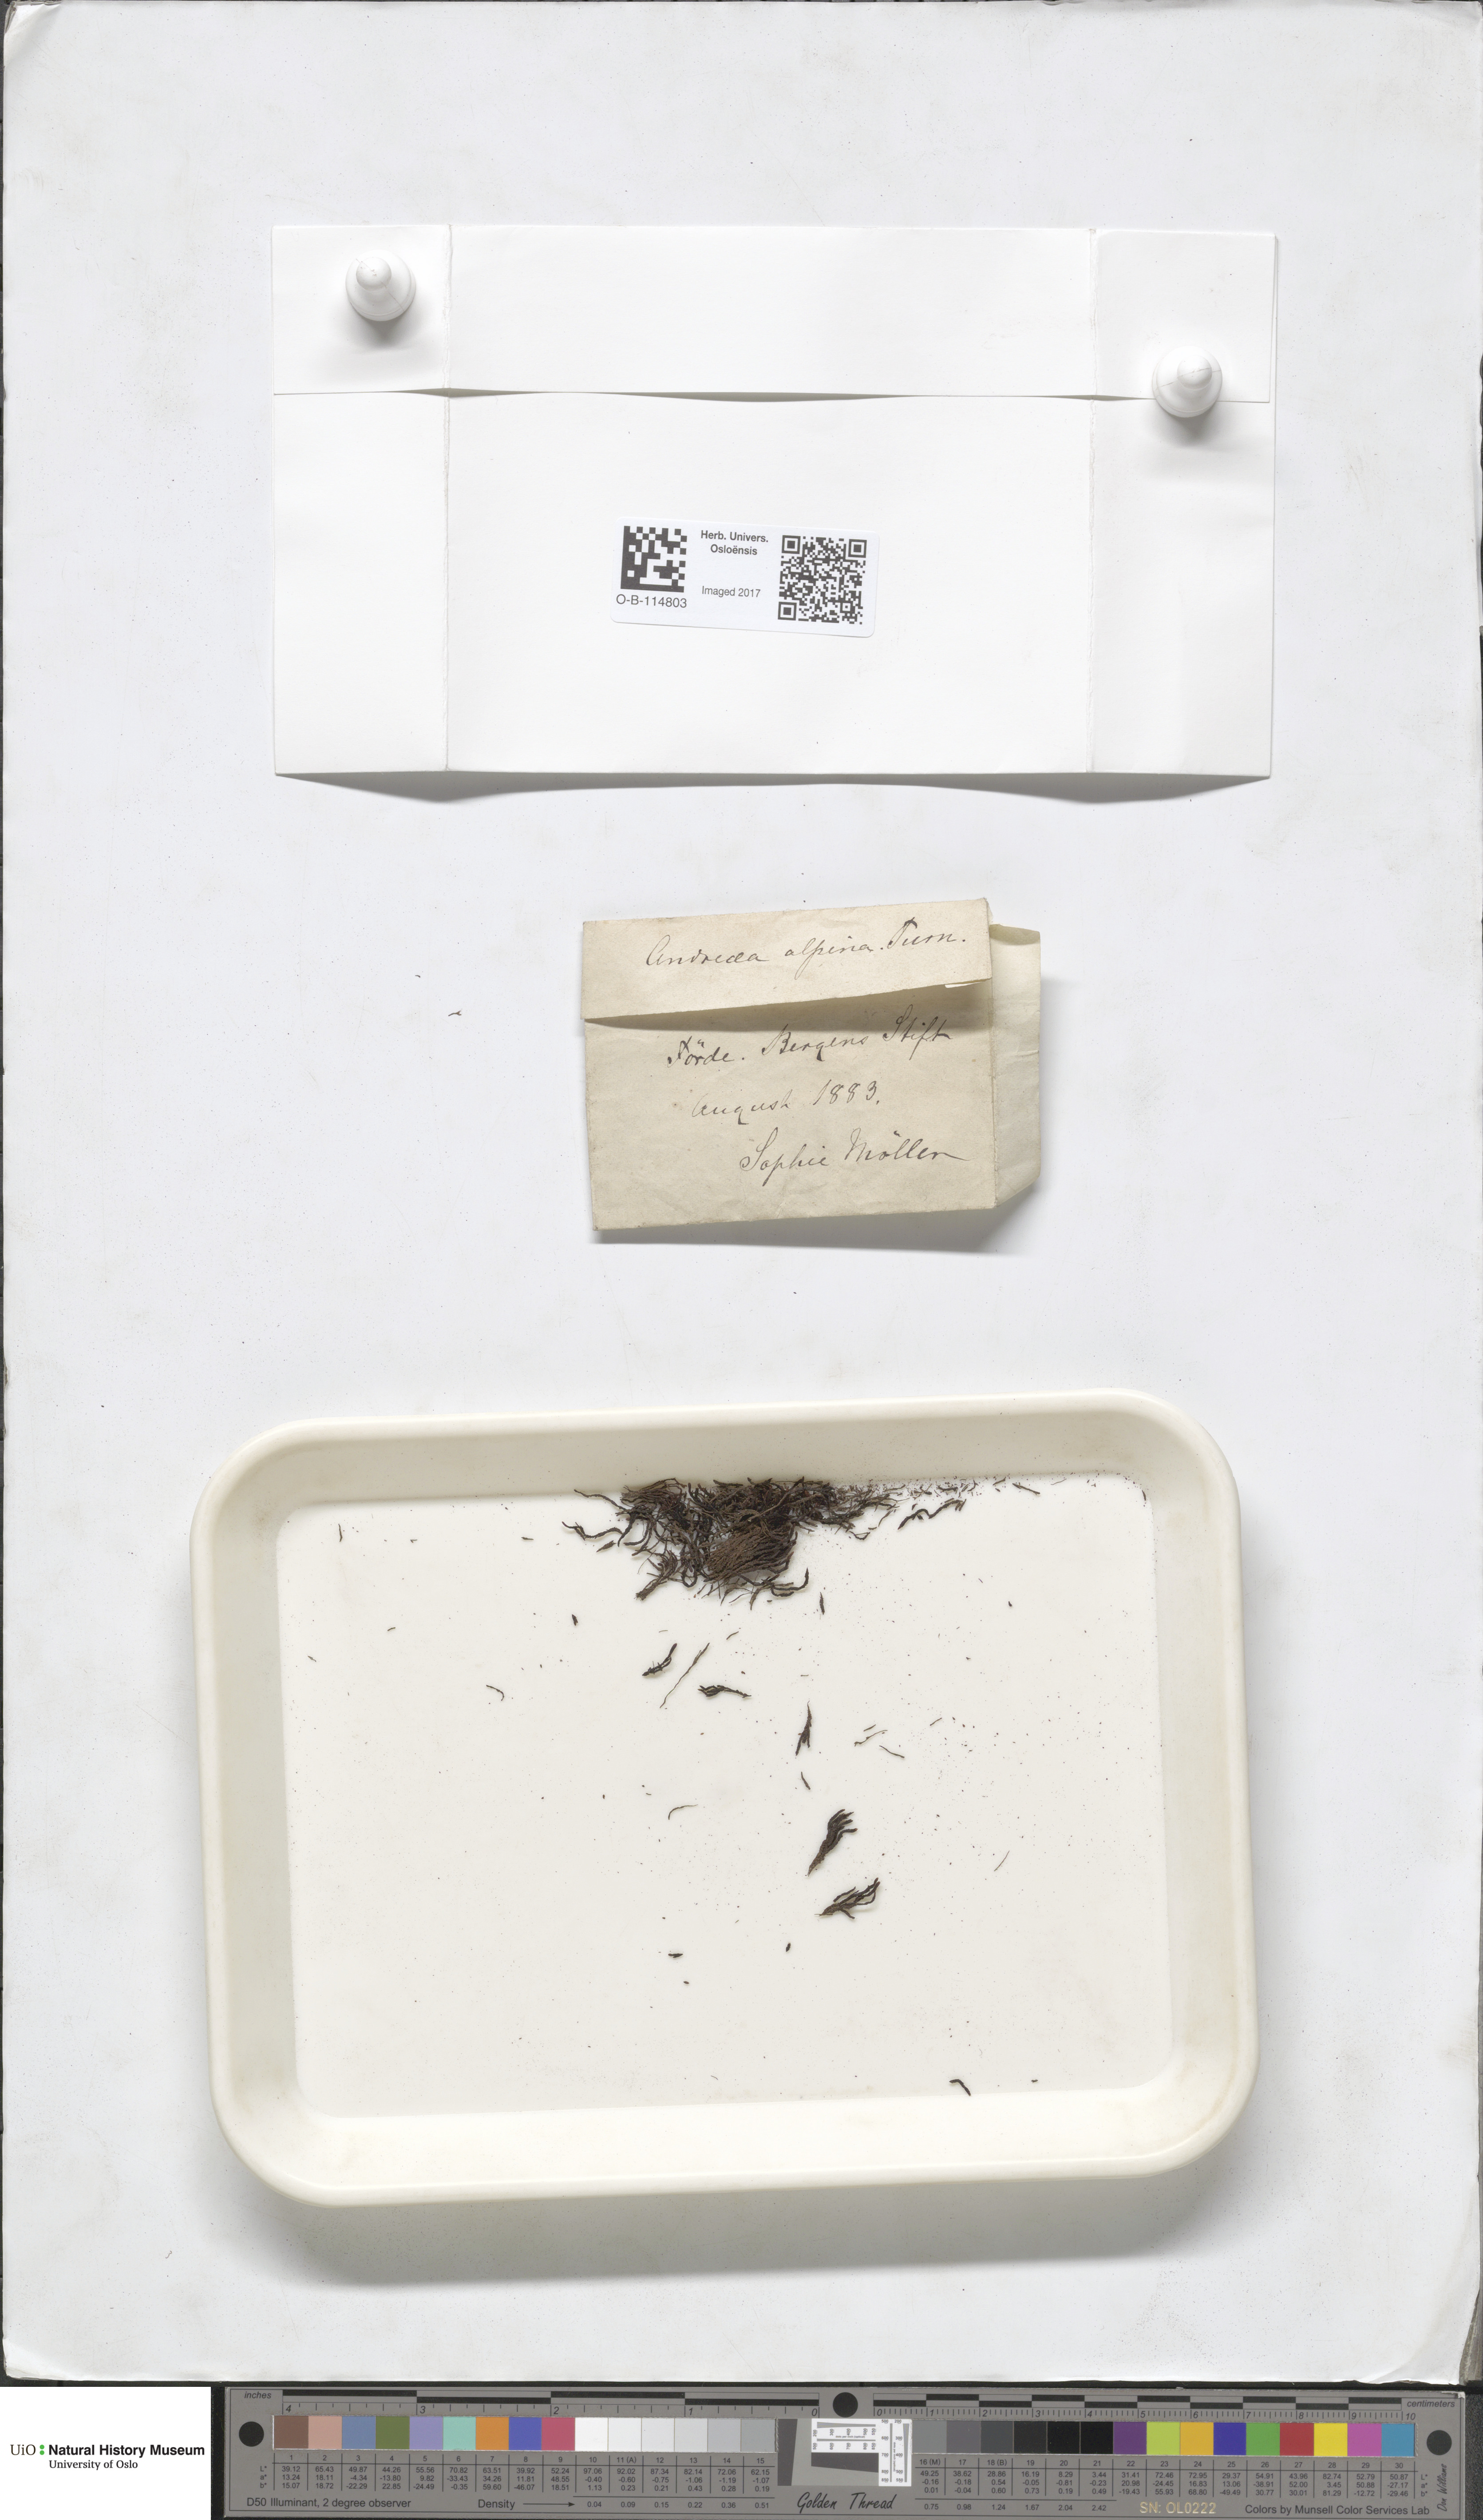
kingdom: Plantae
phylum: Bryophyta
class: Andreaeopsida
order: Andreaeales
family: Andreaeaceae
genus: Andreaea
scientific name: Andreaea hookeri
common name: Alpine rock-moss
